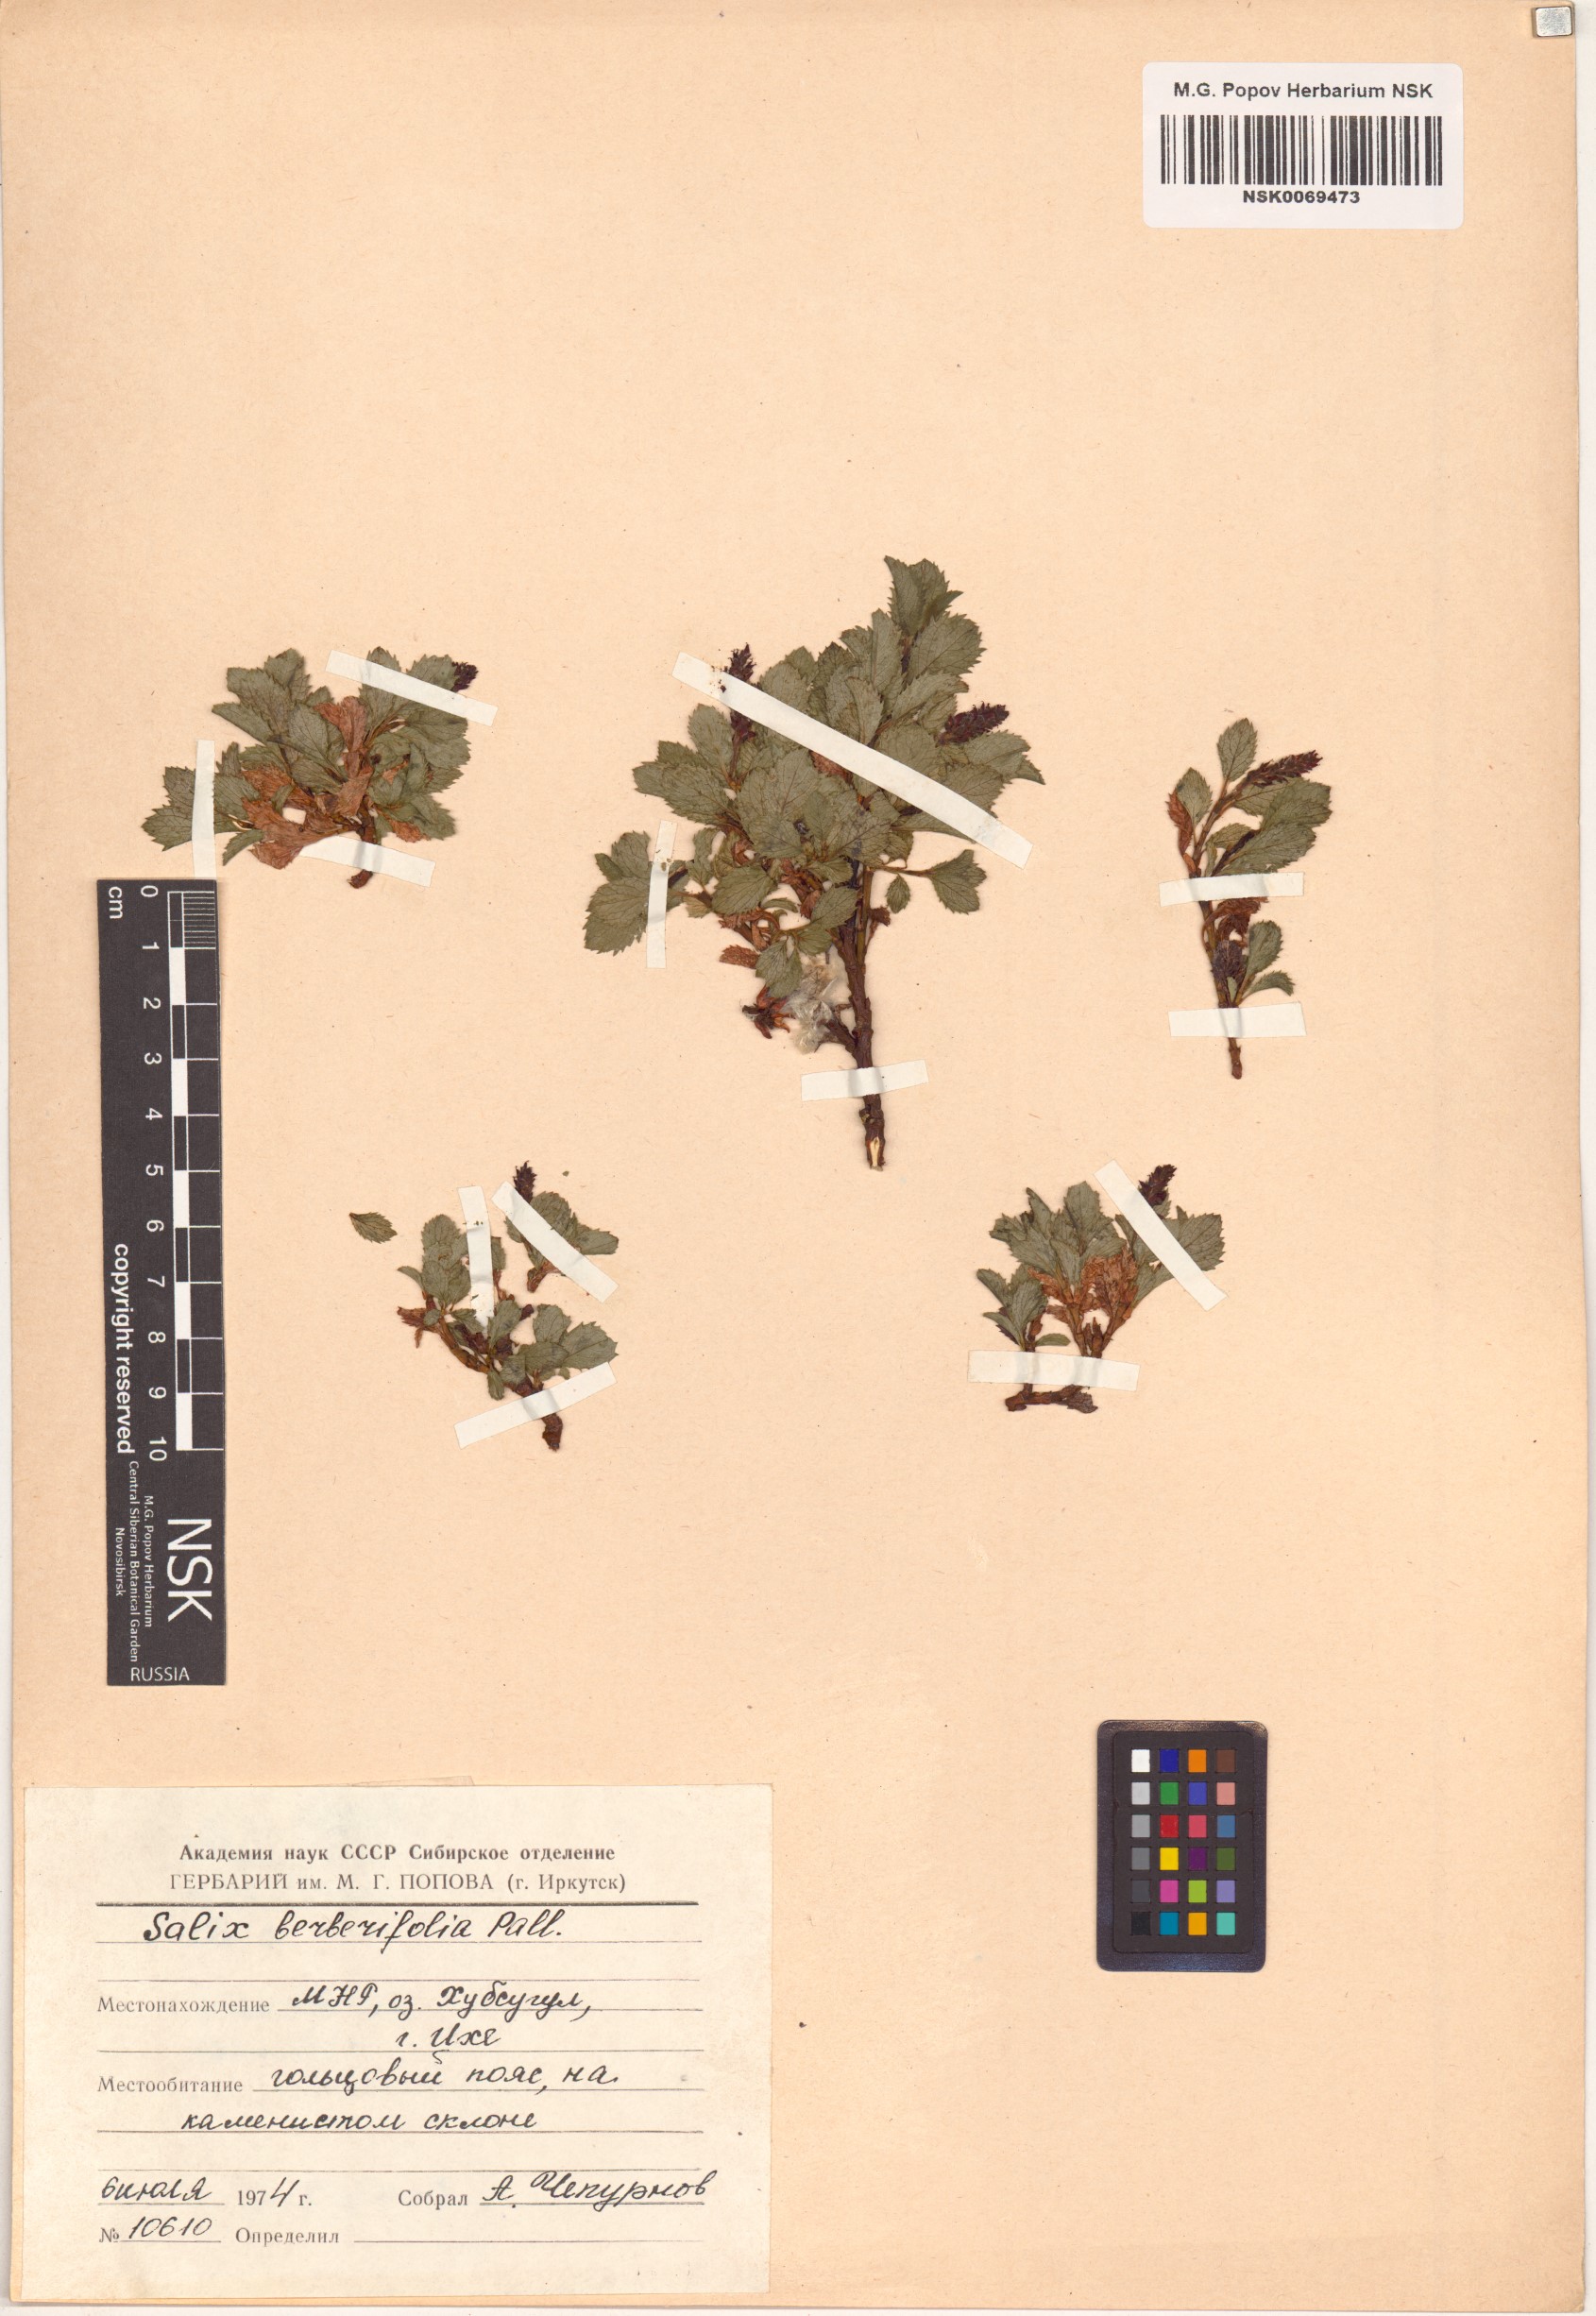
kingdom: Plantae
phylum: Tracheophyta
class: Magnoliopsida
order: Malpighiales
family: Salicaceae
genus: Salix
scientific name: Salix berberifolia
